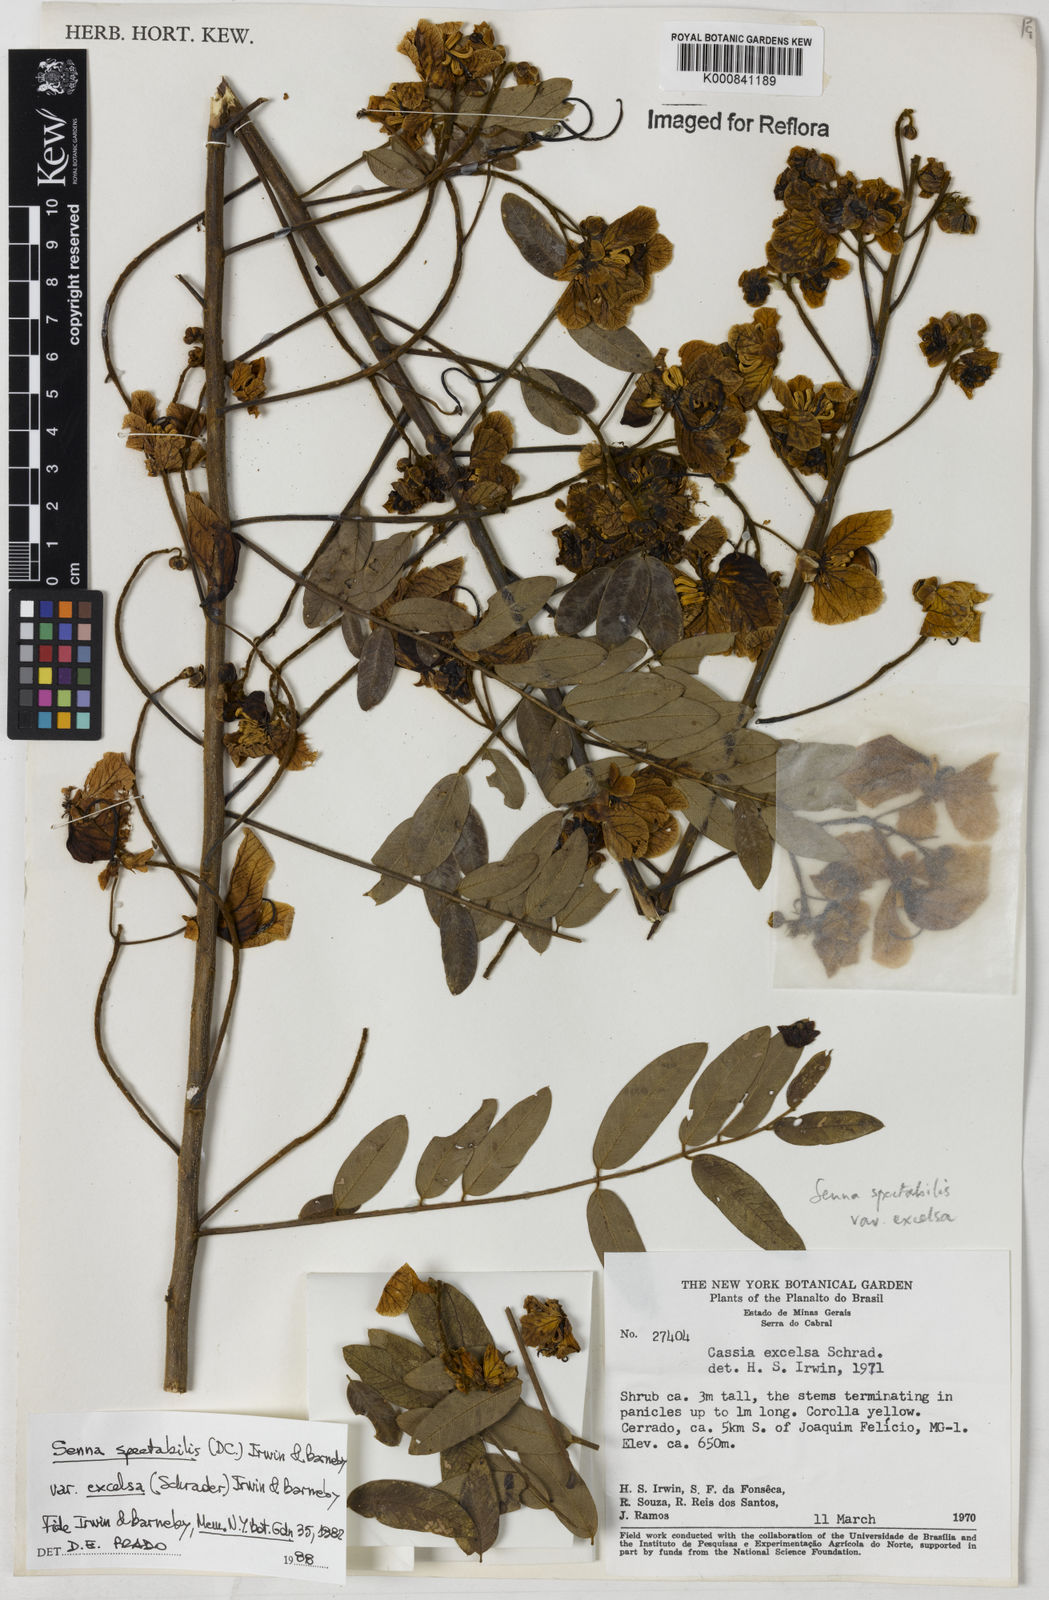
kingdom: Plantae
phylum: Tracheophyta
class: Magnoliopsida
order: Fabales
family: Fabaceae
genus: Senna
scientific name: Senna spectabilis
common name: Casia amarilla
